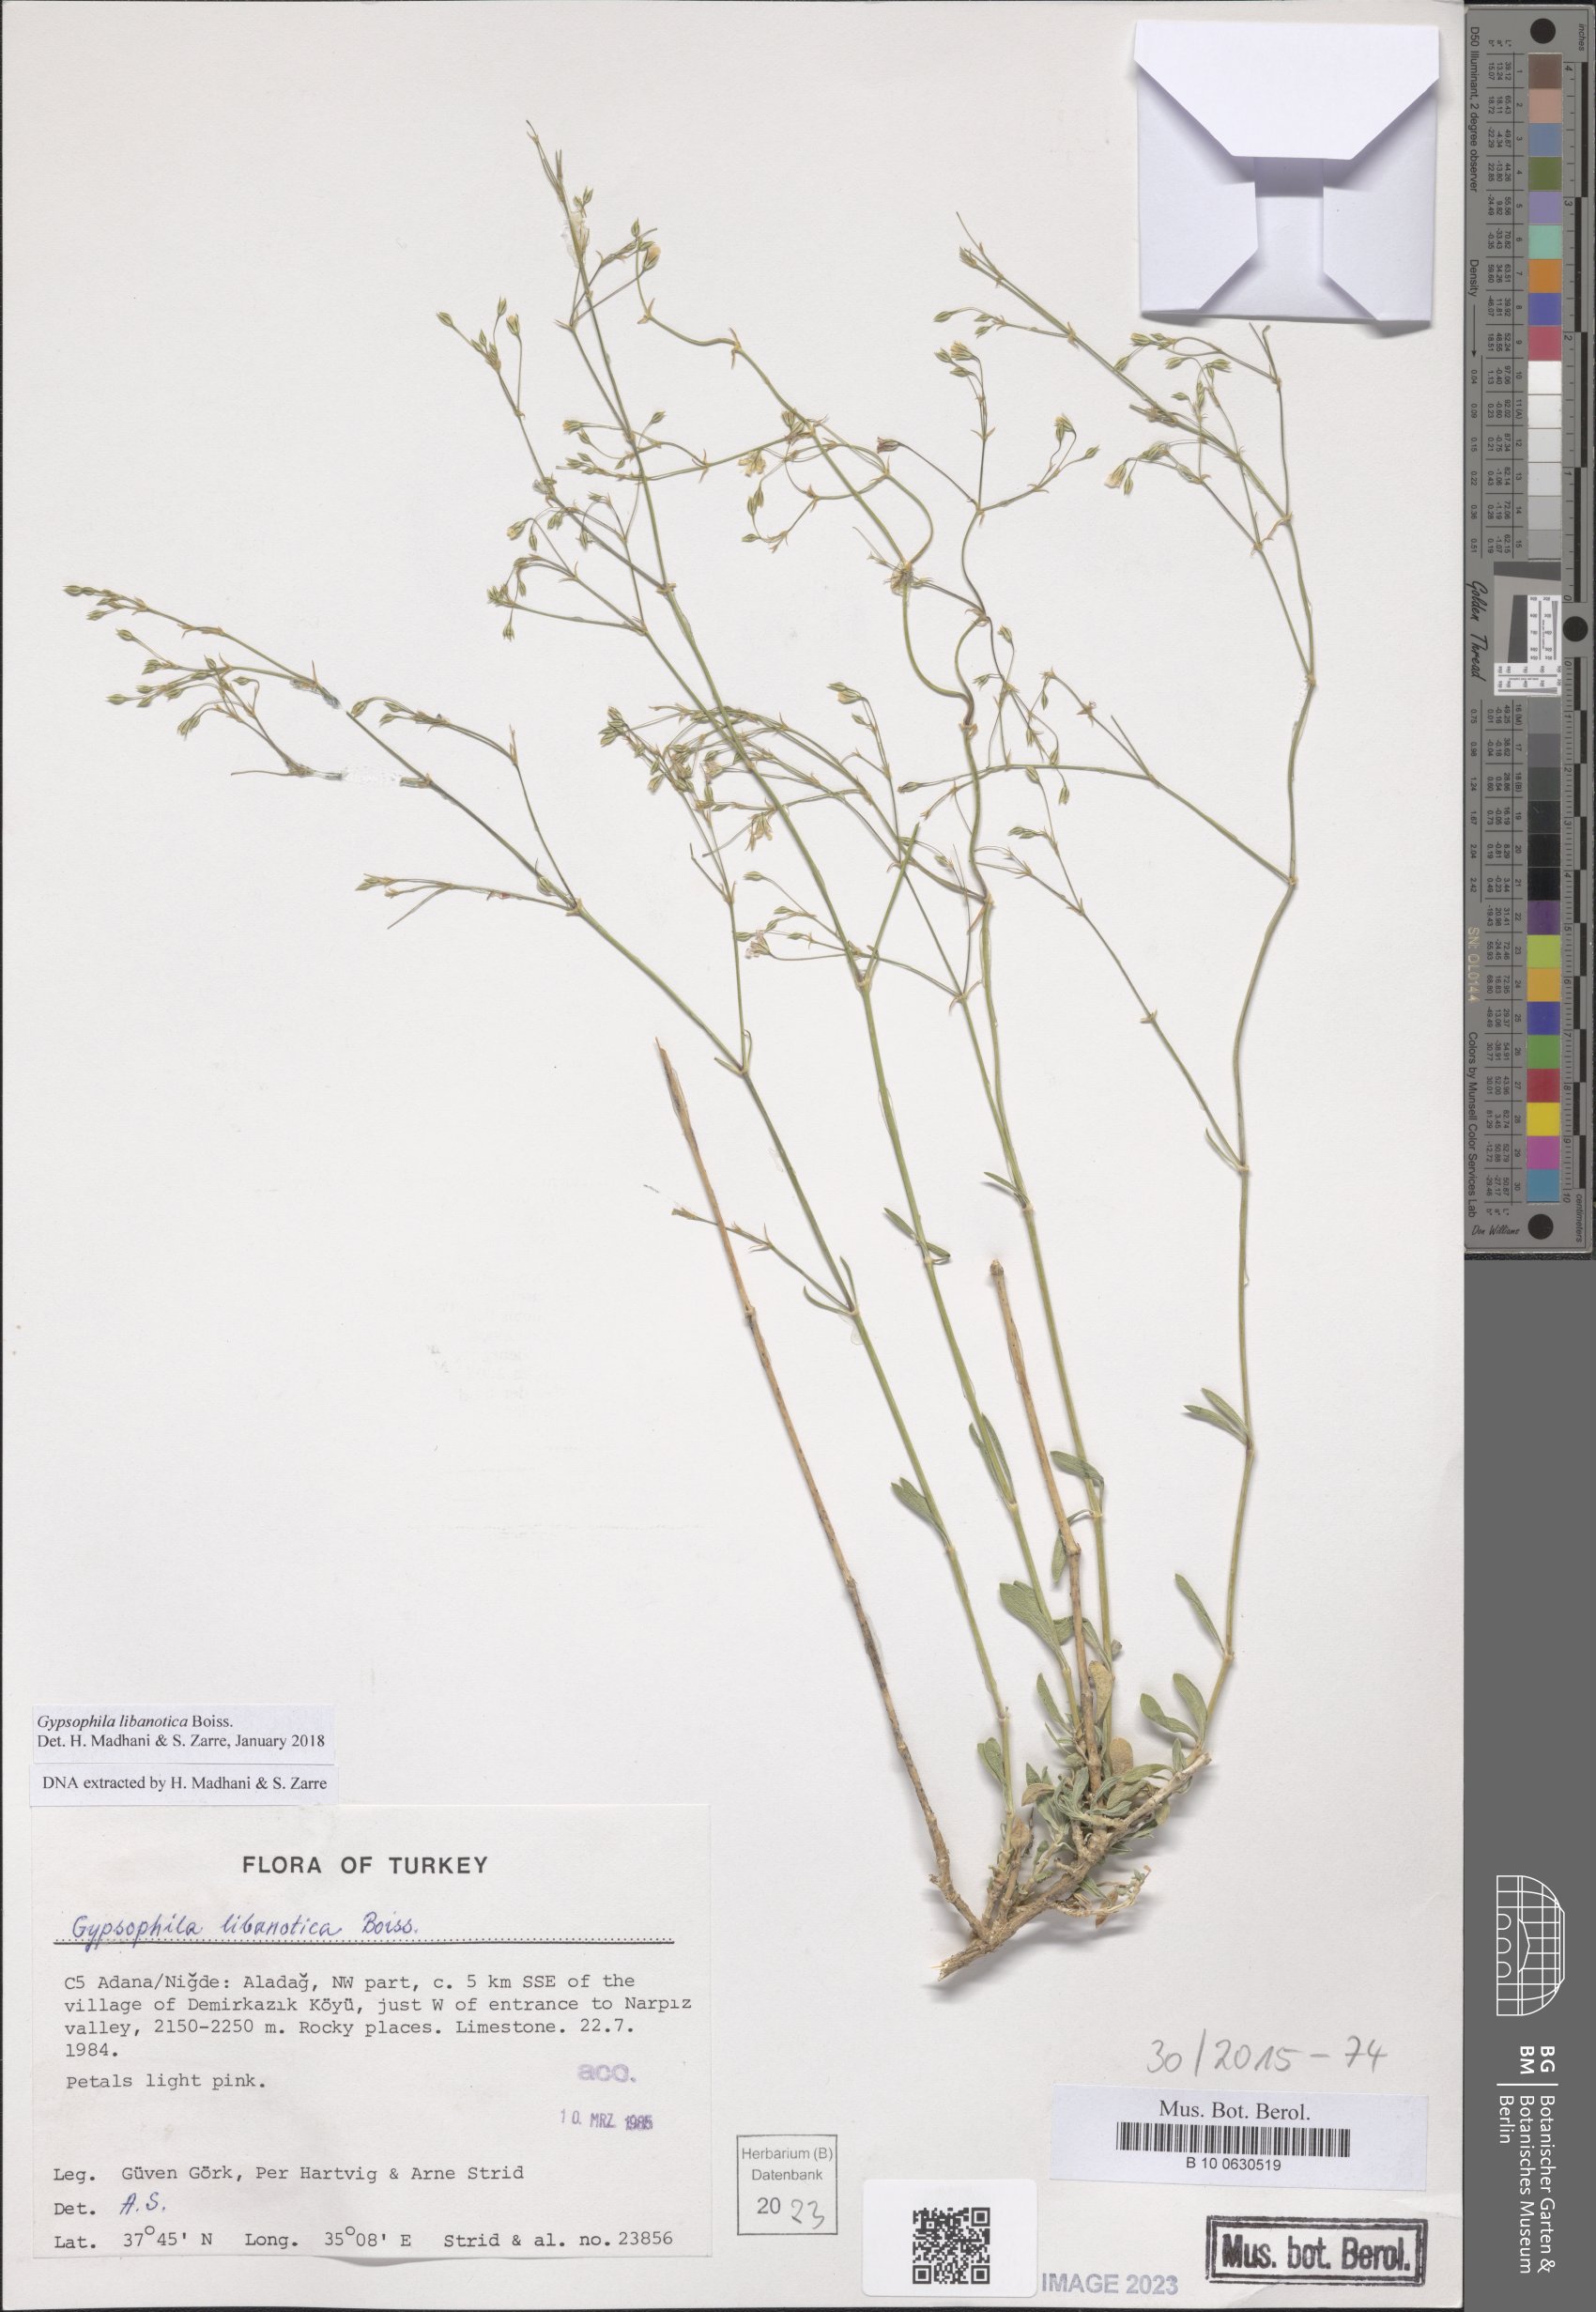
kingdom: Plantae
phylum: Tracheophyta
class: Magnoliopsida
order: Caryophyllales
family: Caryophyllaceae
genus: Gypsophila
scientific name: Gypsophila libanotica
